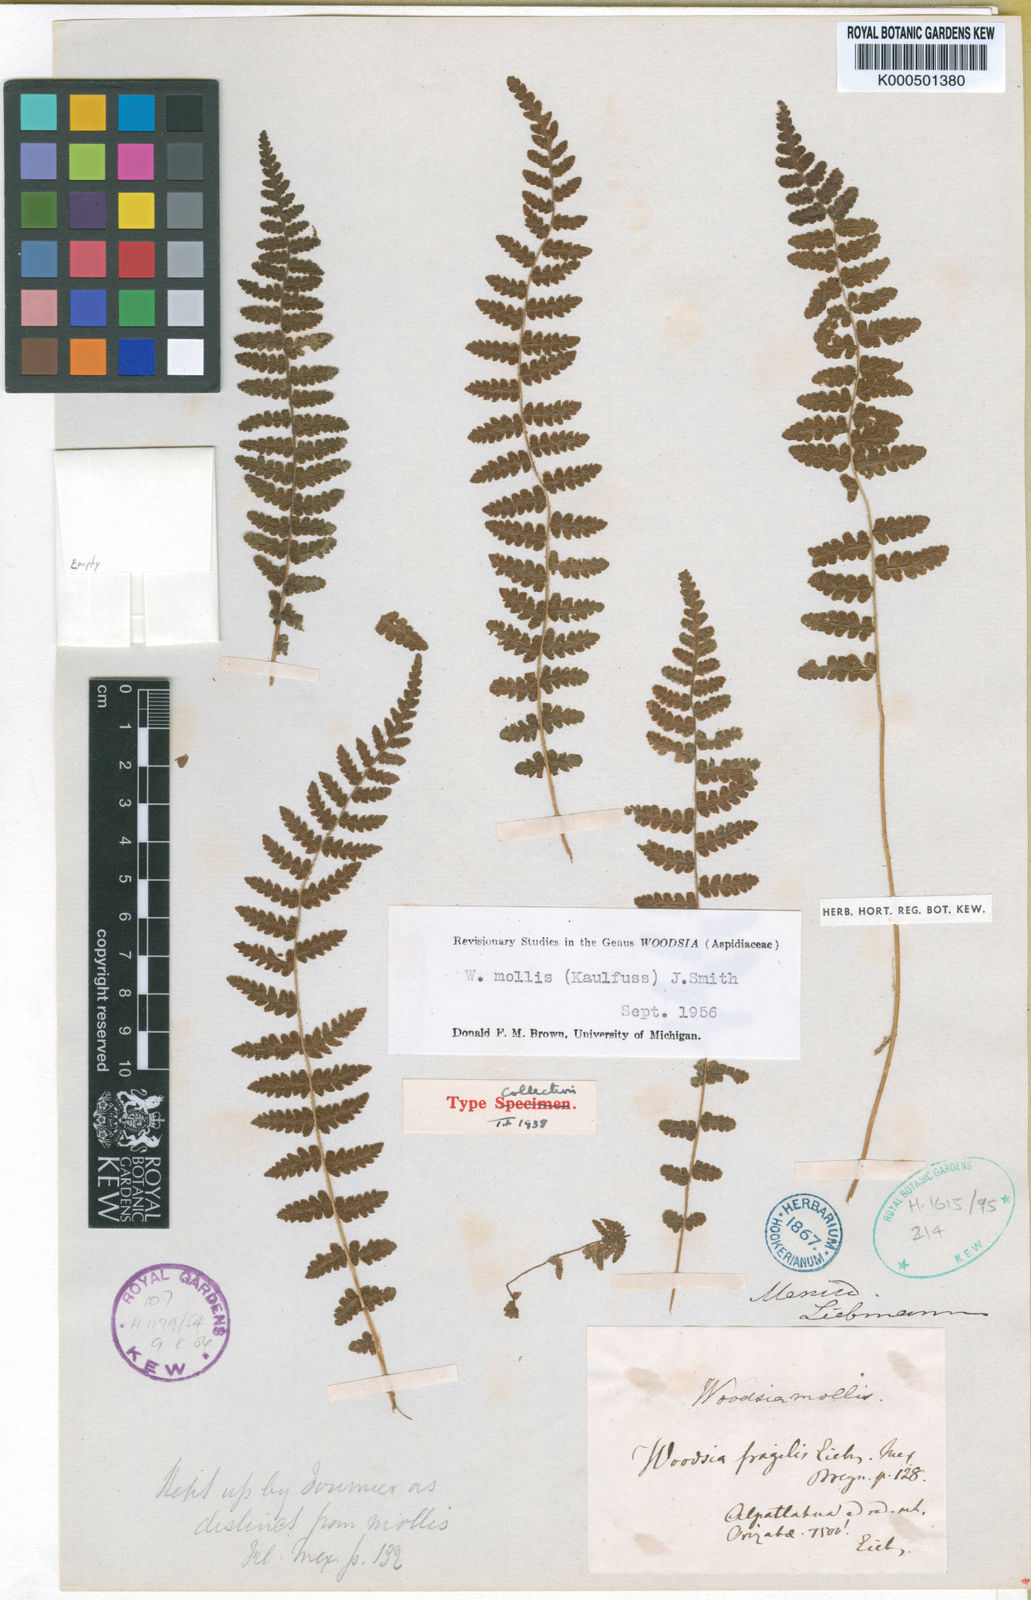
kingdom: Plantae
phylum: Tracheophyta
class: Polypodiopsida
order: Polypodiales
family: Woodsiaceae
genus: Physematium
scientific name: Physematium molle
